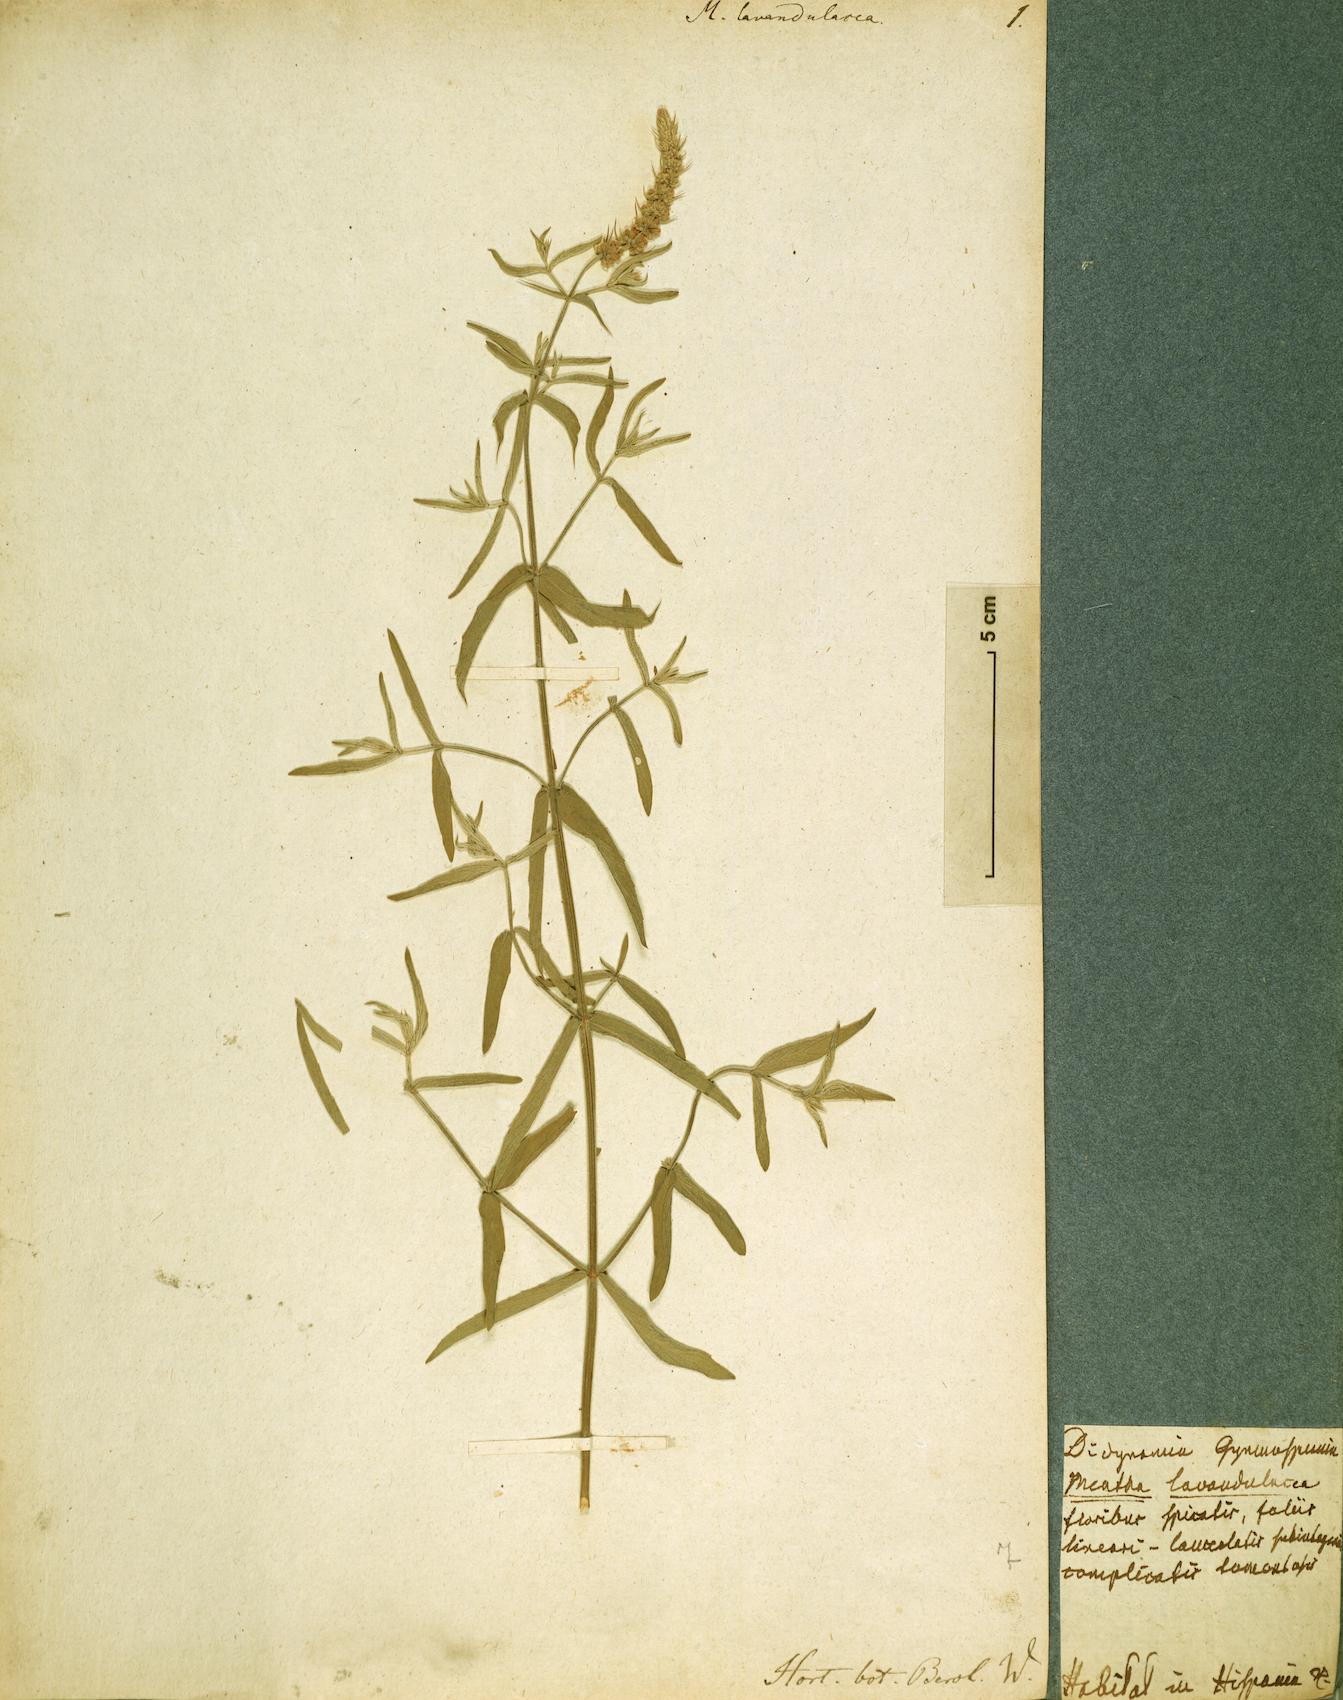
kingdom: Plantae
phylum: Tracheophyta
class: Magnoliopsida
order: Lamiales
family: Lamiaceae
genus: Mentha
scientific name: Mentha longifolia
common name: Horse mint
